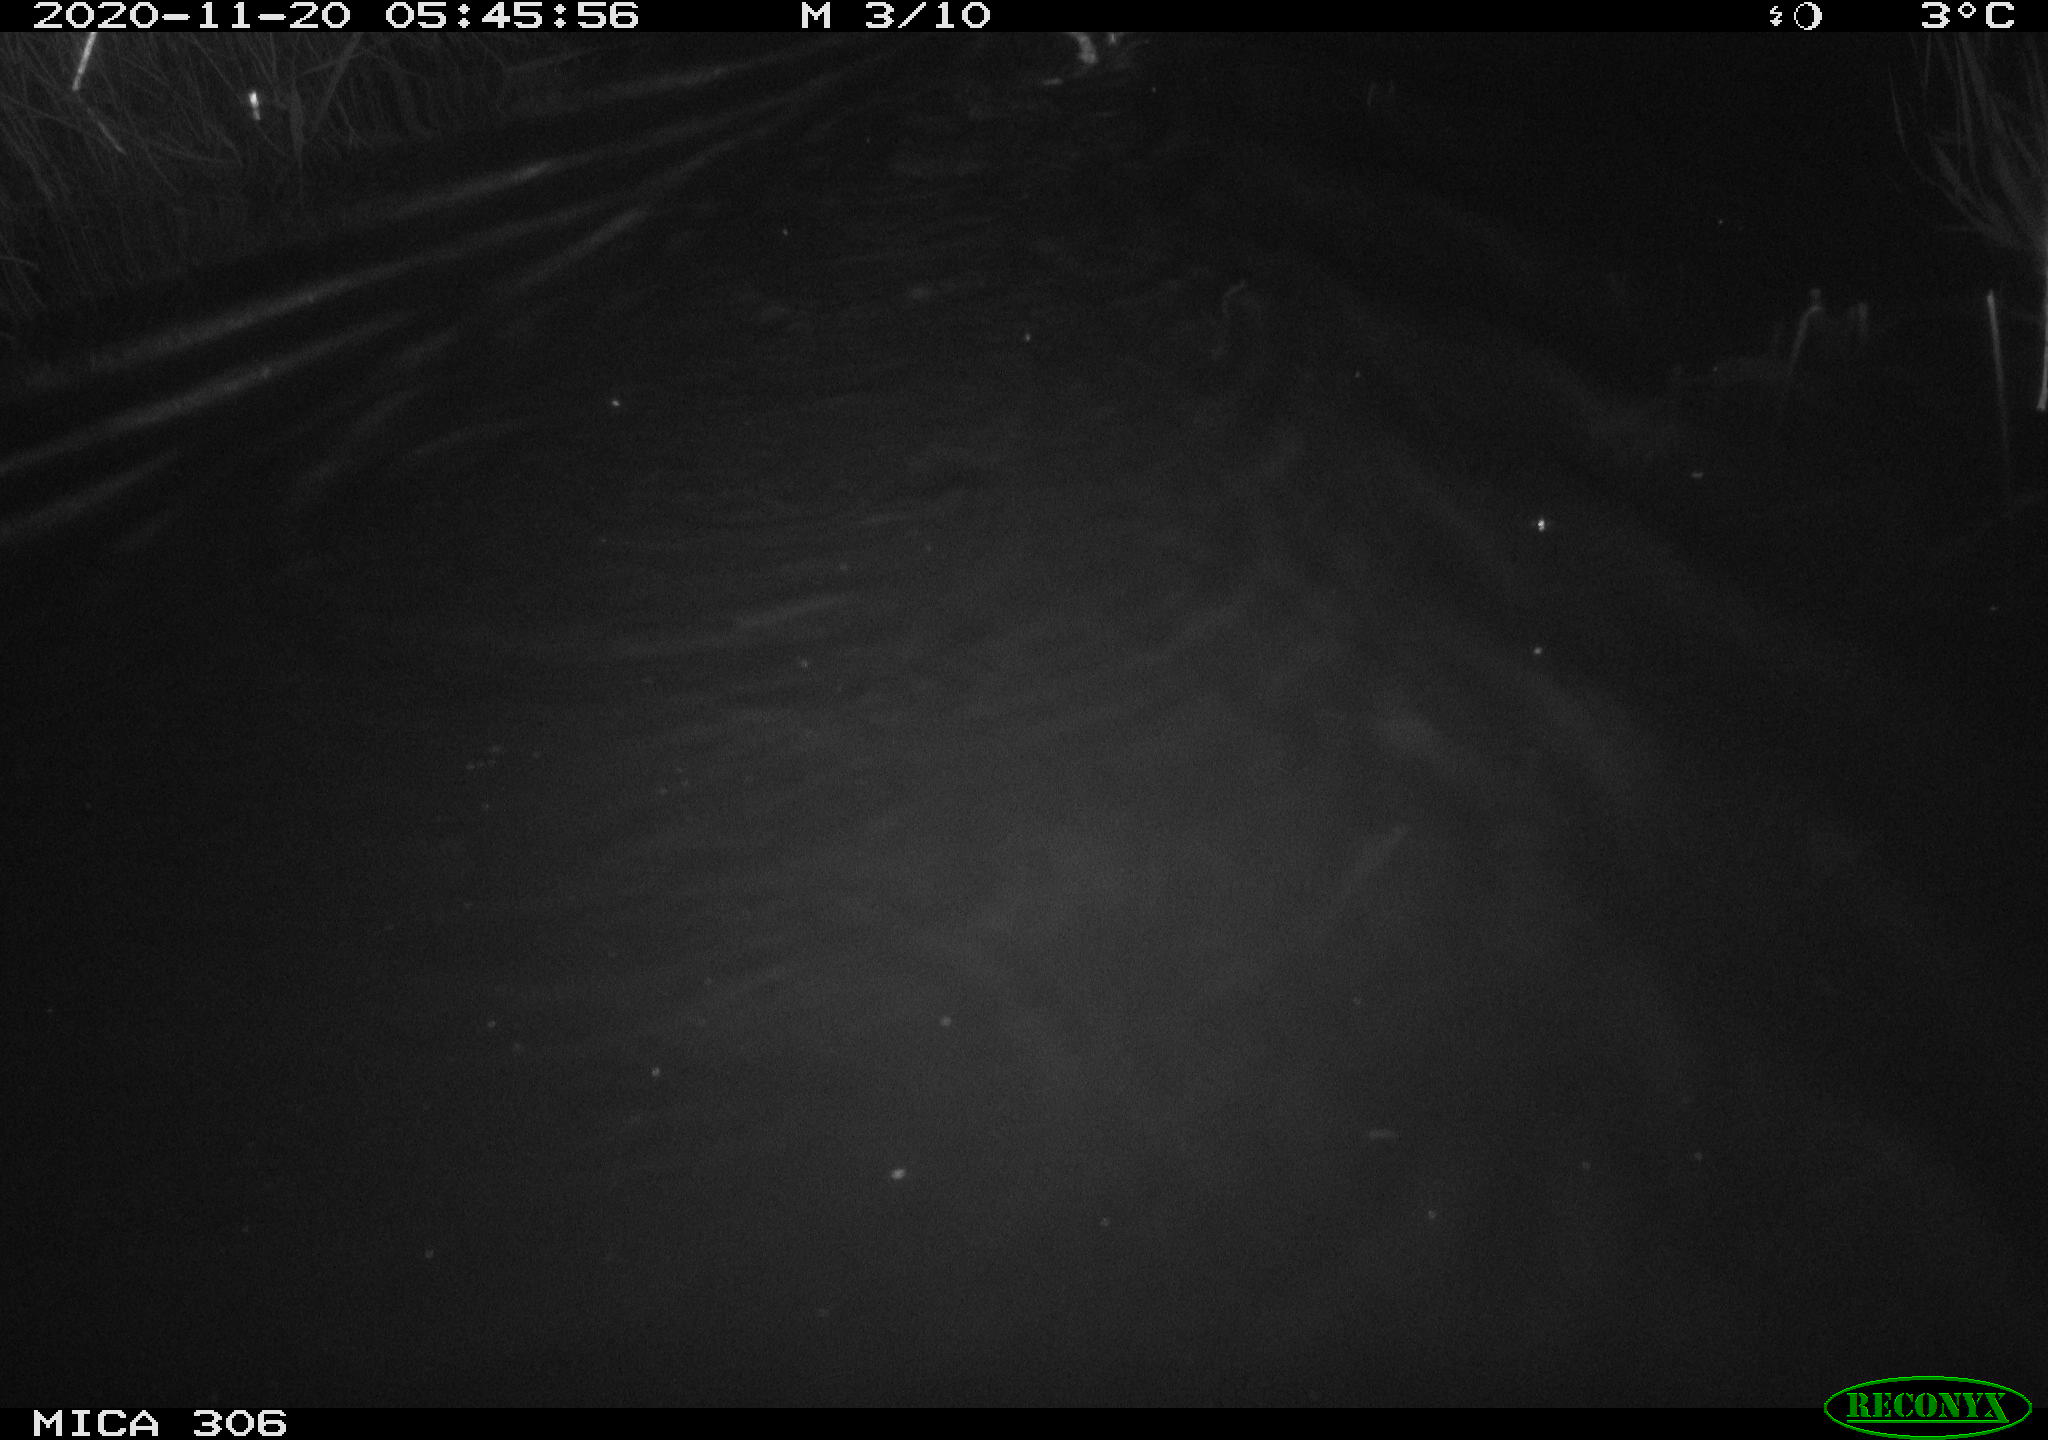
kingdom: Animalia
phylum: Chordata
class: Mammalia
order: Rodentia
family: Cricetidae
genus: Ondatra
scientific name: Ondatra zibethicus
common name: Muskrat
